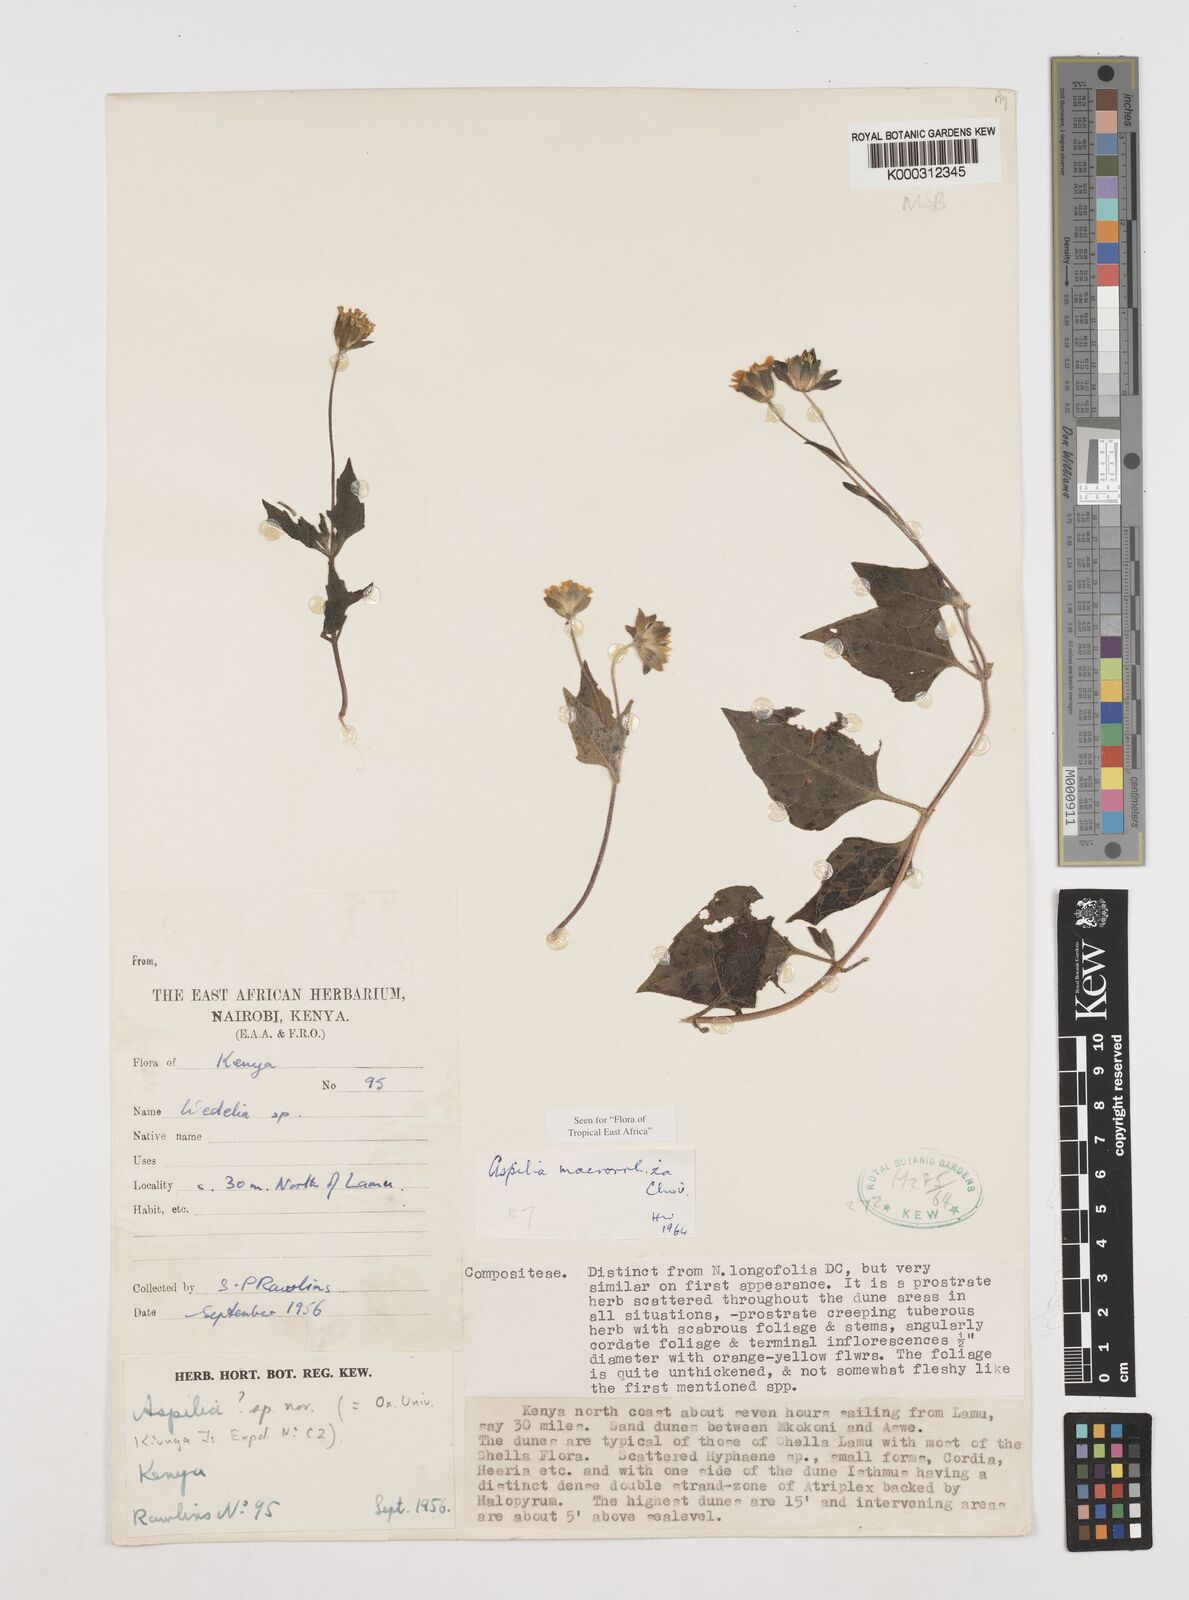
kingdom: Plantae
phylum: Tracheophyta
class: Magnoliopsida
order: Asterales
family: Asteraceae
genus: Aspilia
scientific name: Aspilia macrorrhiza
